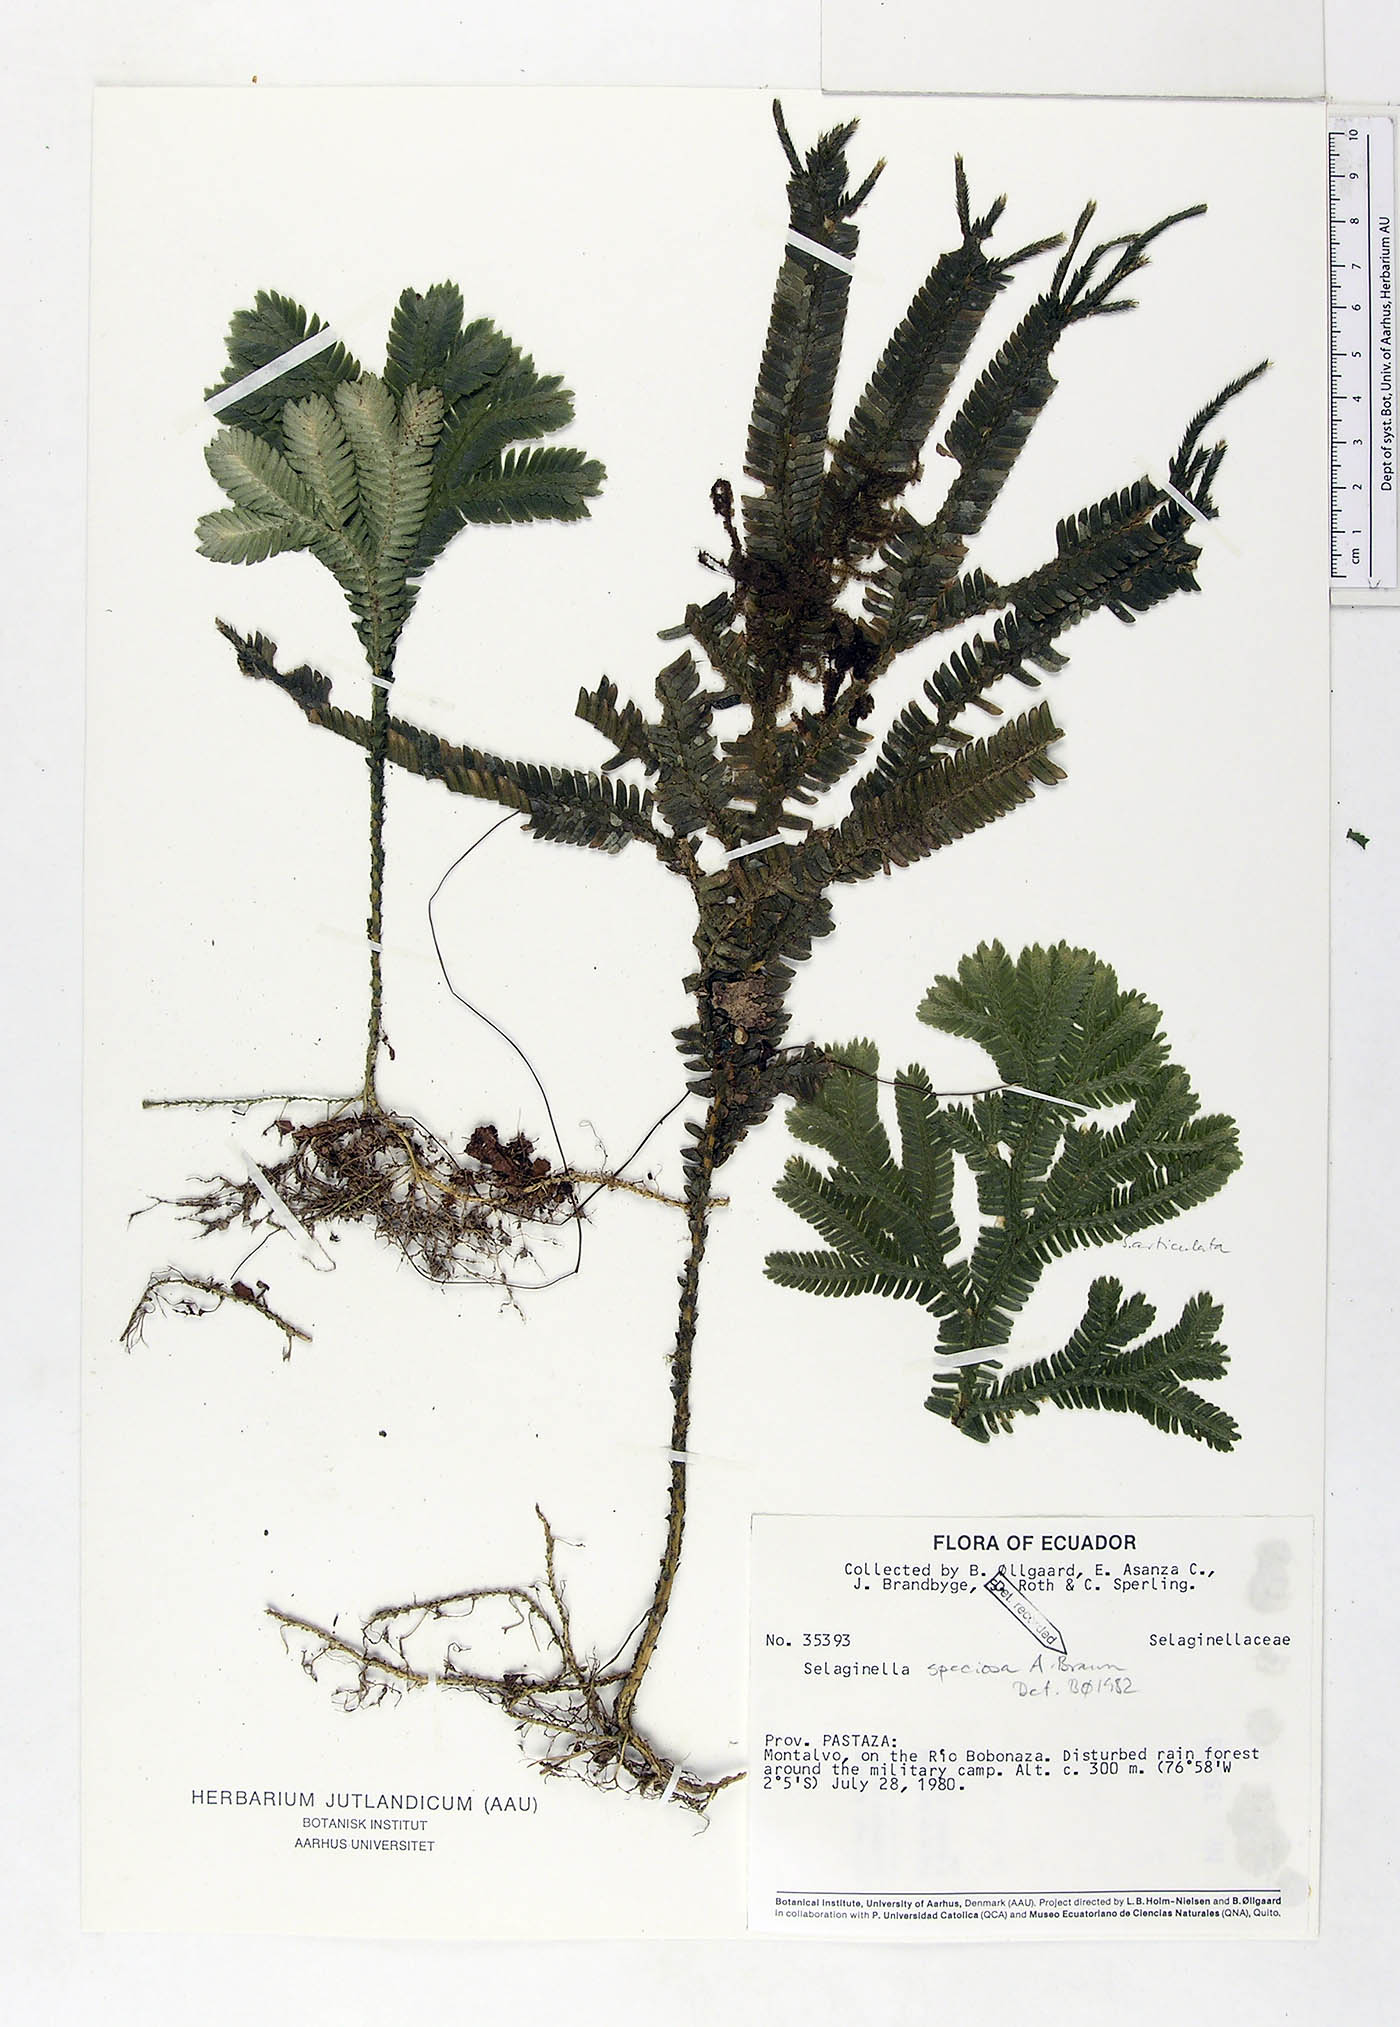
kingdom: Plantae
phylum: Tracheophyta
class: Lycopodiopsida
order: Selaginellales
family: Selaginellaceae
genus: Selaginella
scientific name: Selaginella speciosa
